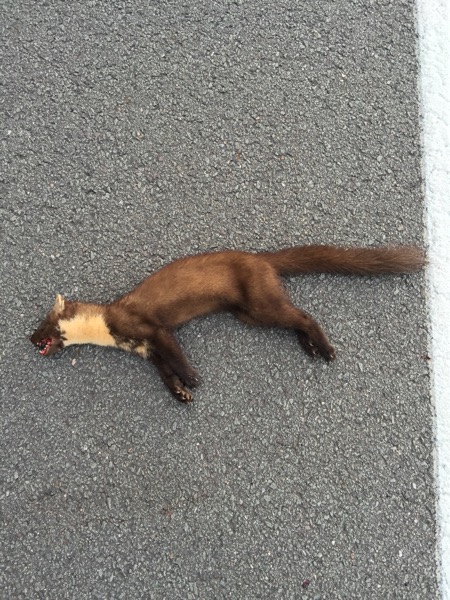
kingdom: Animalia
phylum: Chordata
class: Mammalia
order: Carnivora
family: Mustelidae
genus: Martes
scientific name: Martes martes
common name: European pine marten
